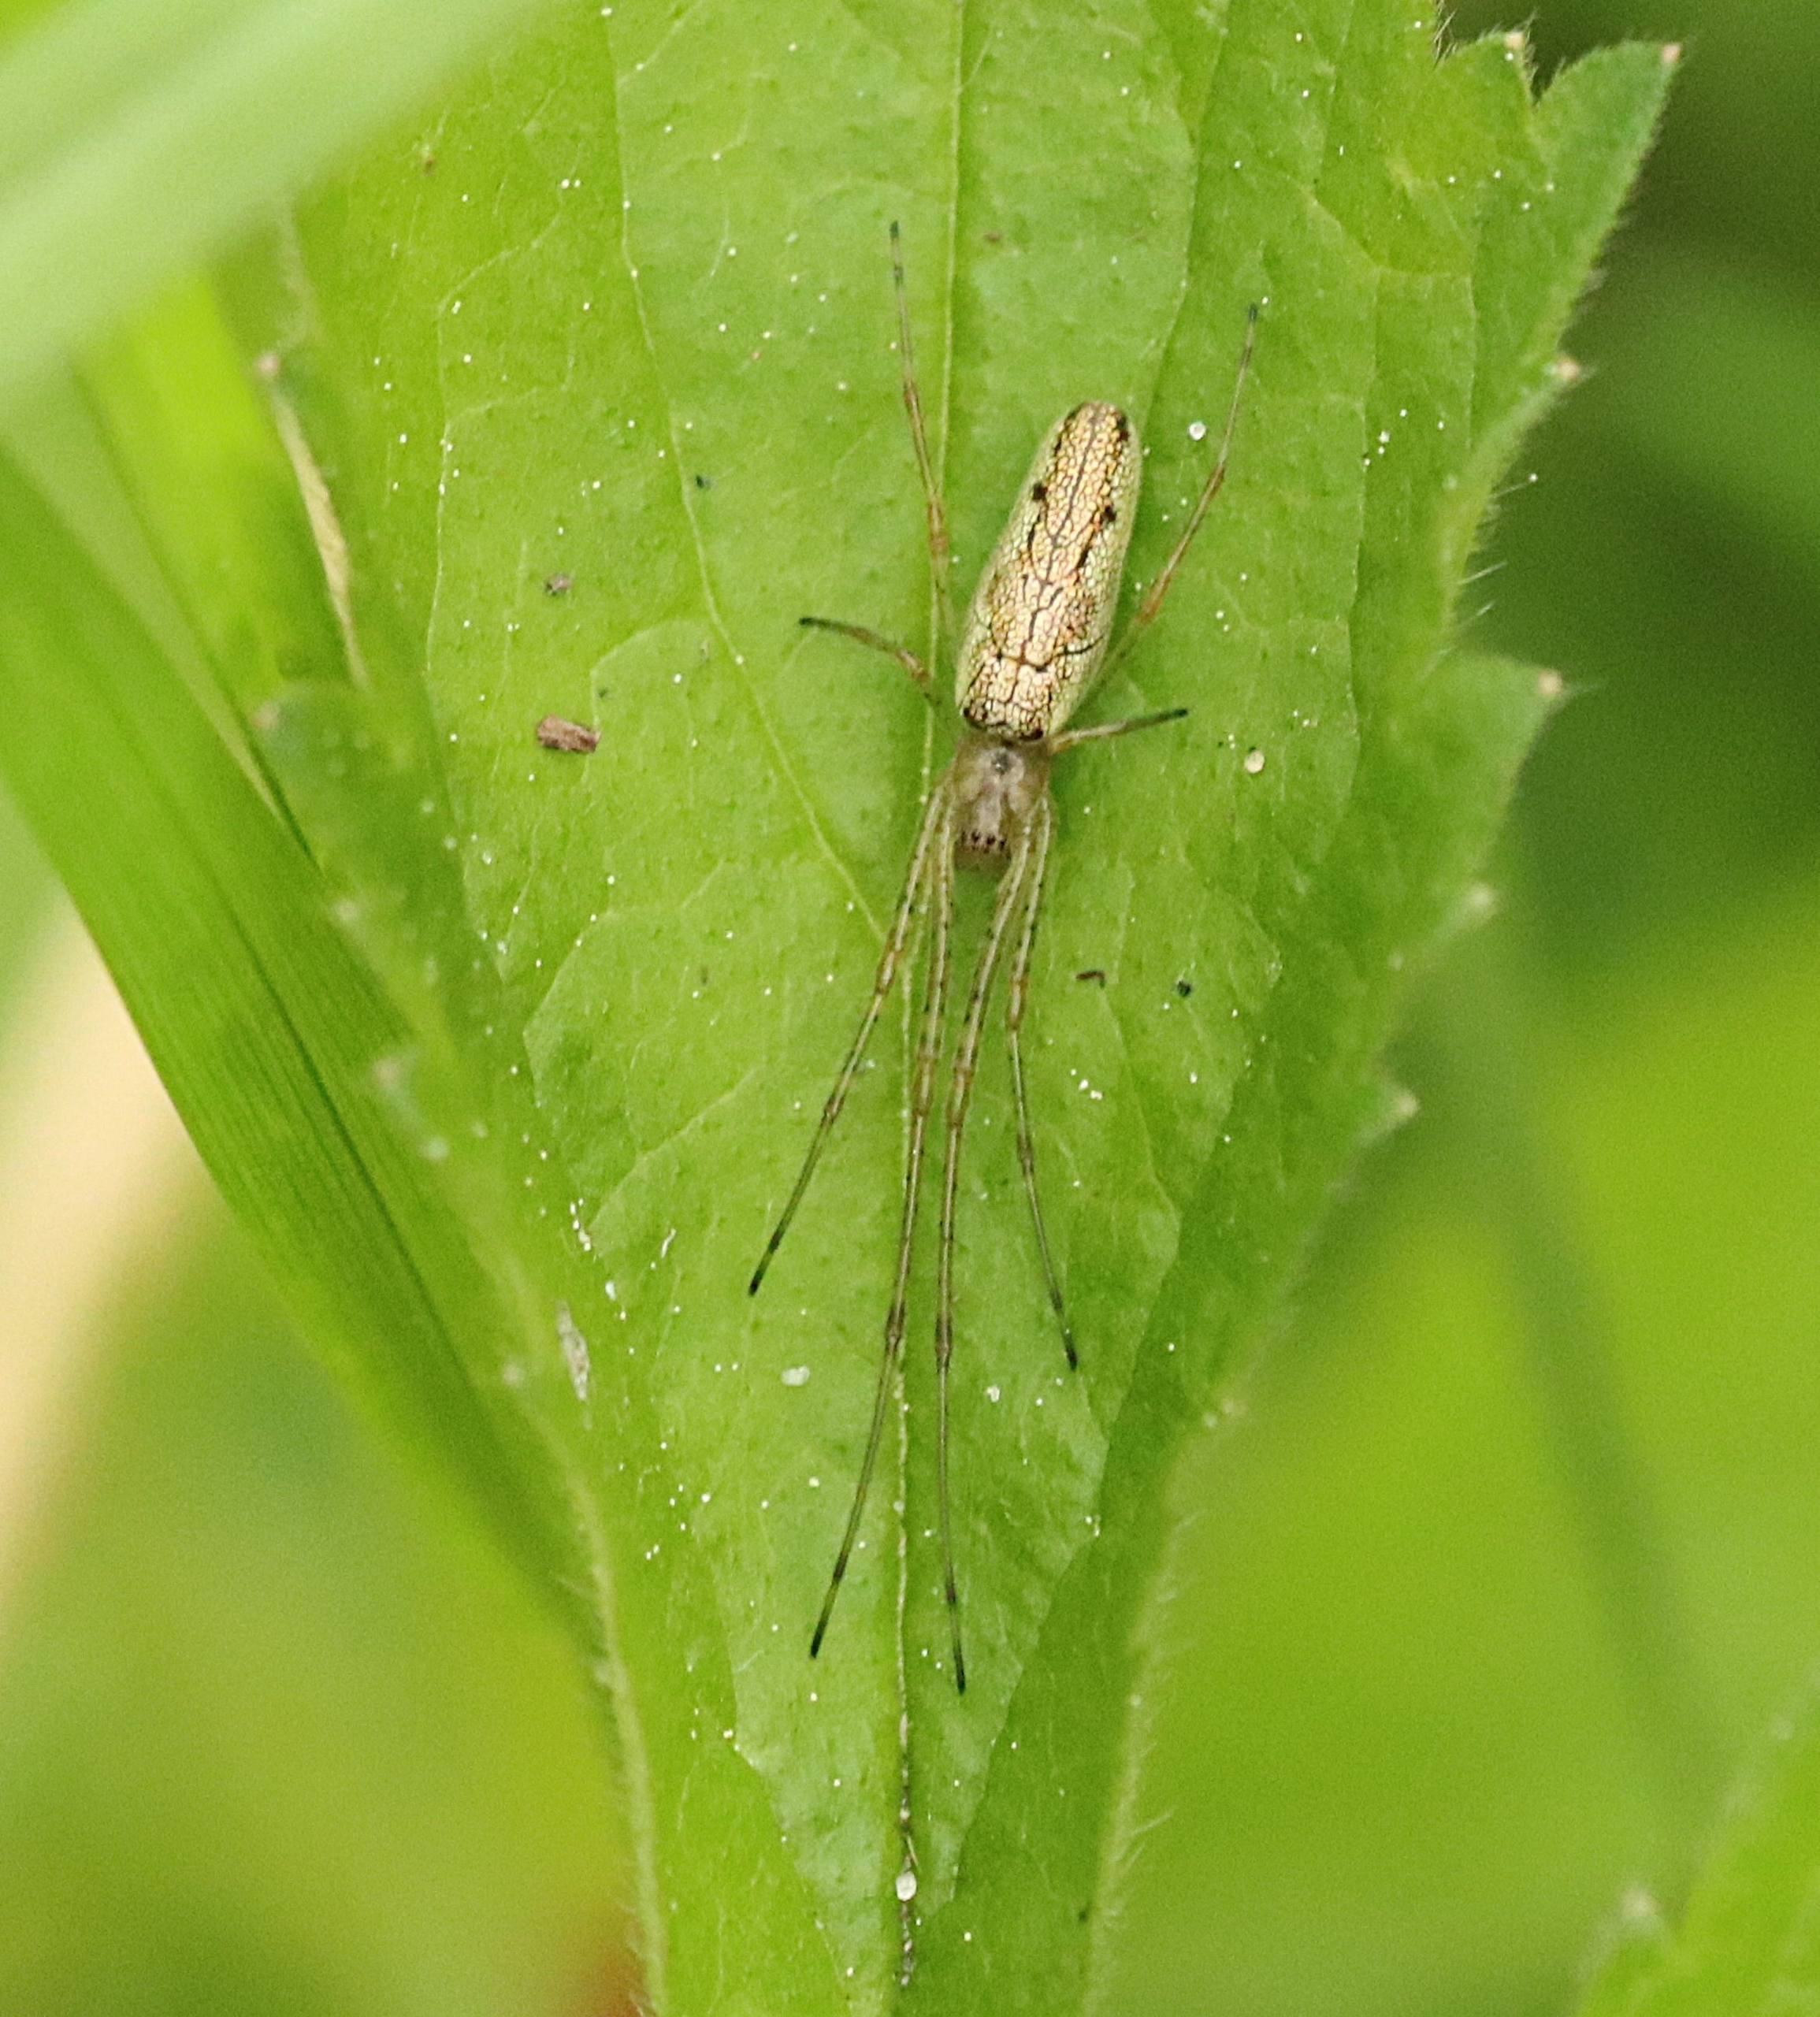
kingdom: Animalia
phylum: Arthropoda
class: Arachnida
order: Araneae
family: Tetragnathidae
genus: Tetragnatha
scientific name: Tetragnatha
